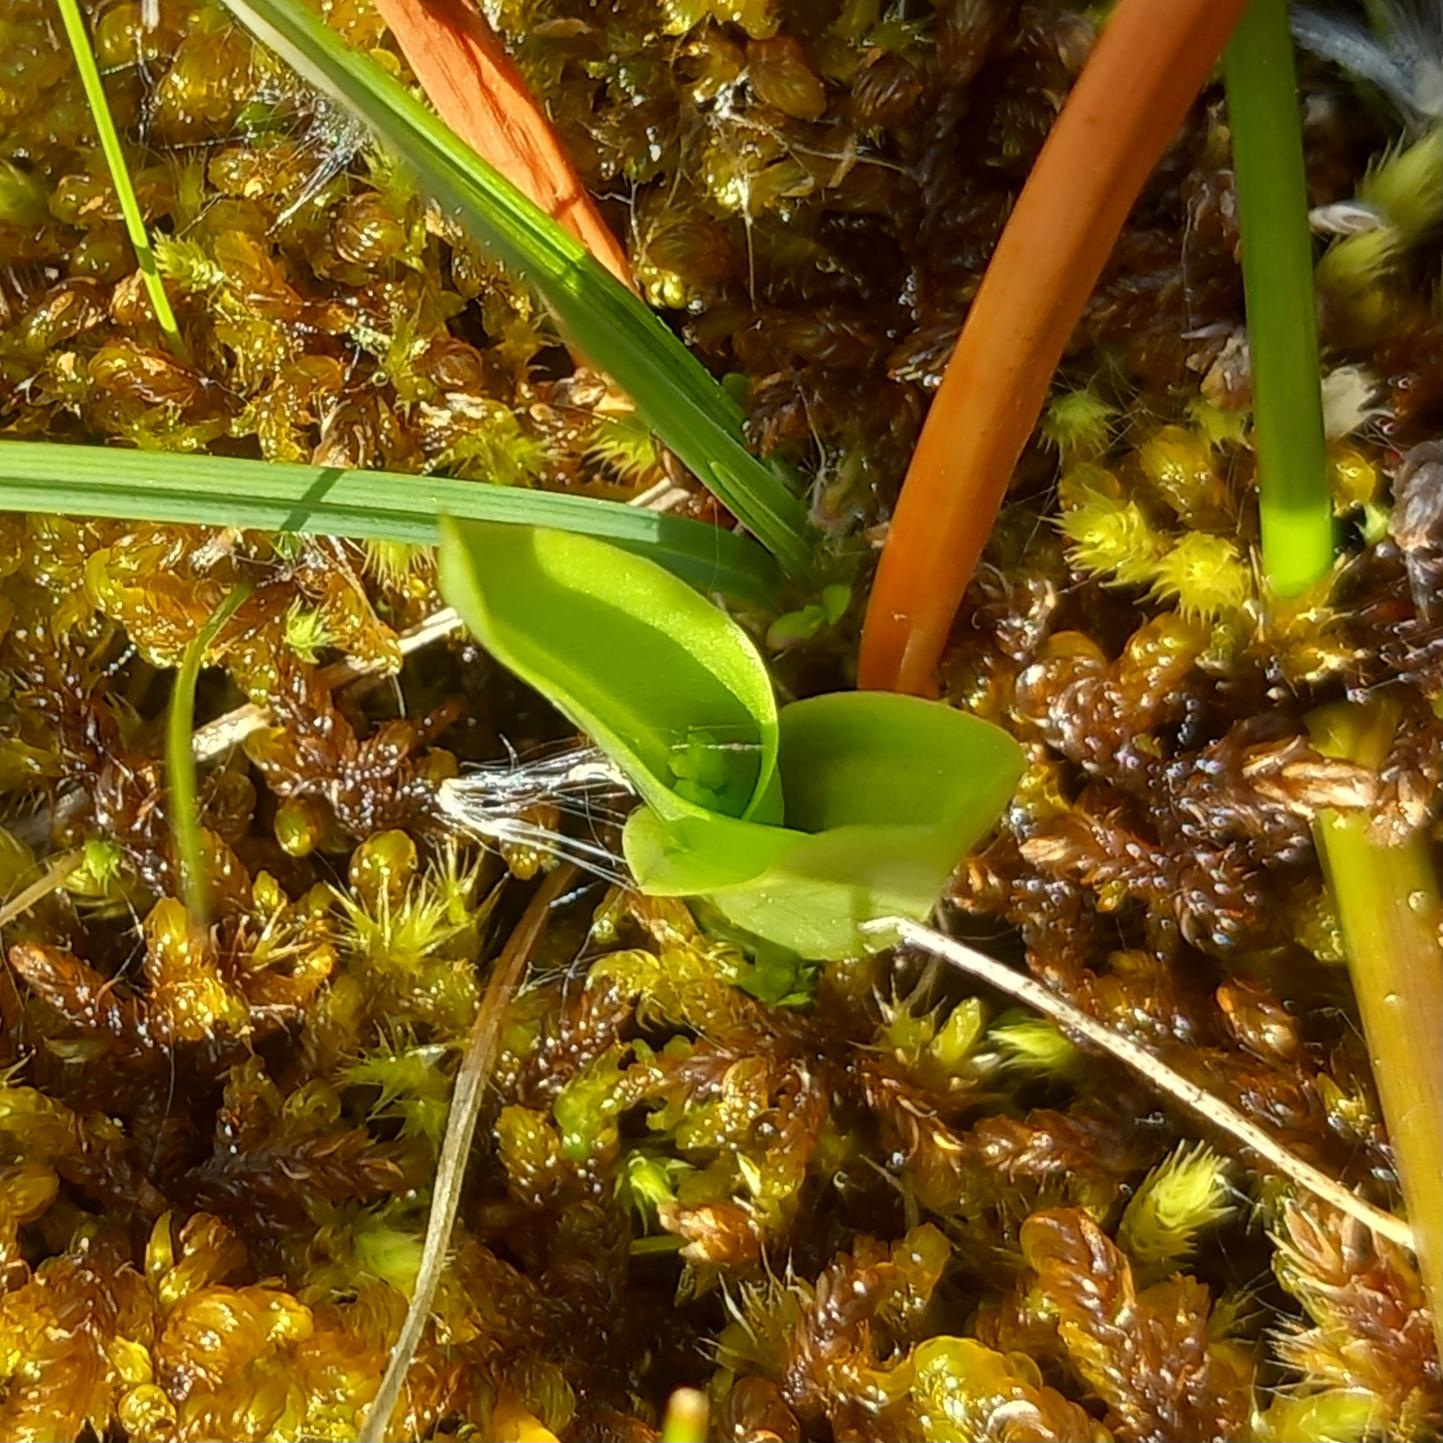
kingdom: Animalia
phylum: Arthropoda
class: Insecta
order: Coleoptera
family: Curculionidae
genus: Liparis
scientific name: Liparis loeselii
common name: Mygblomst
